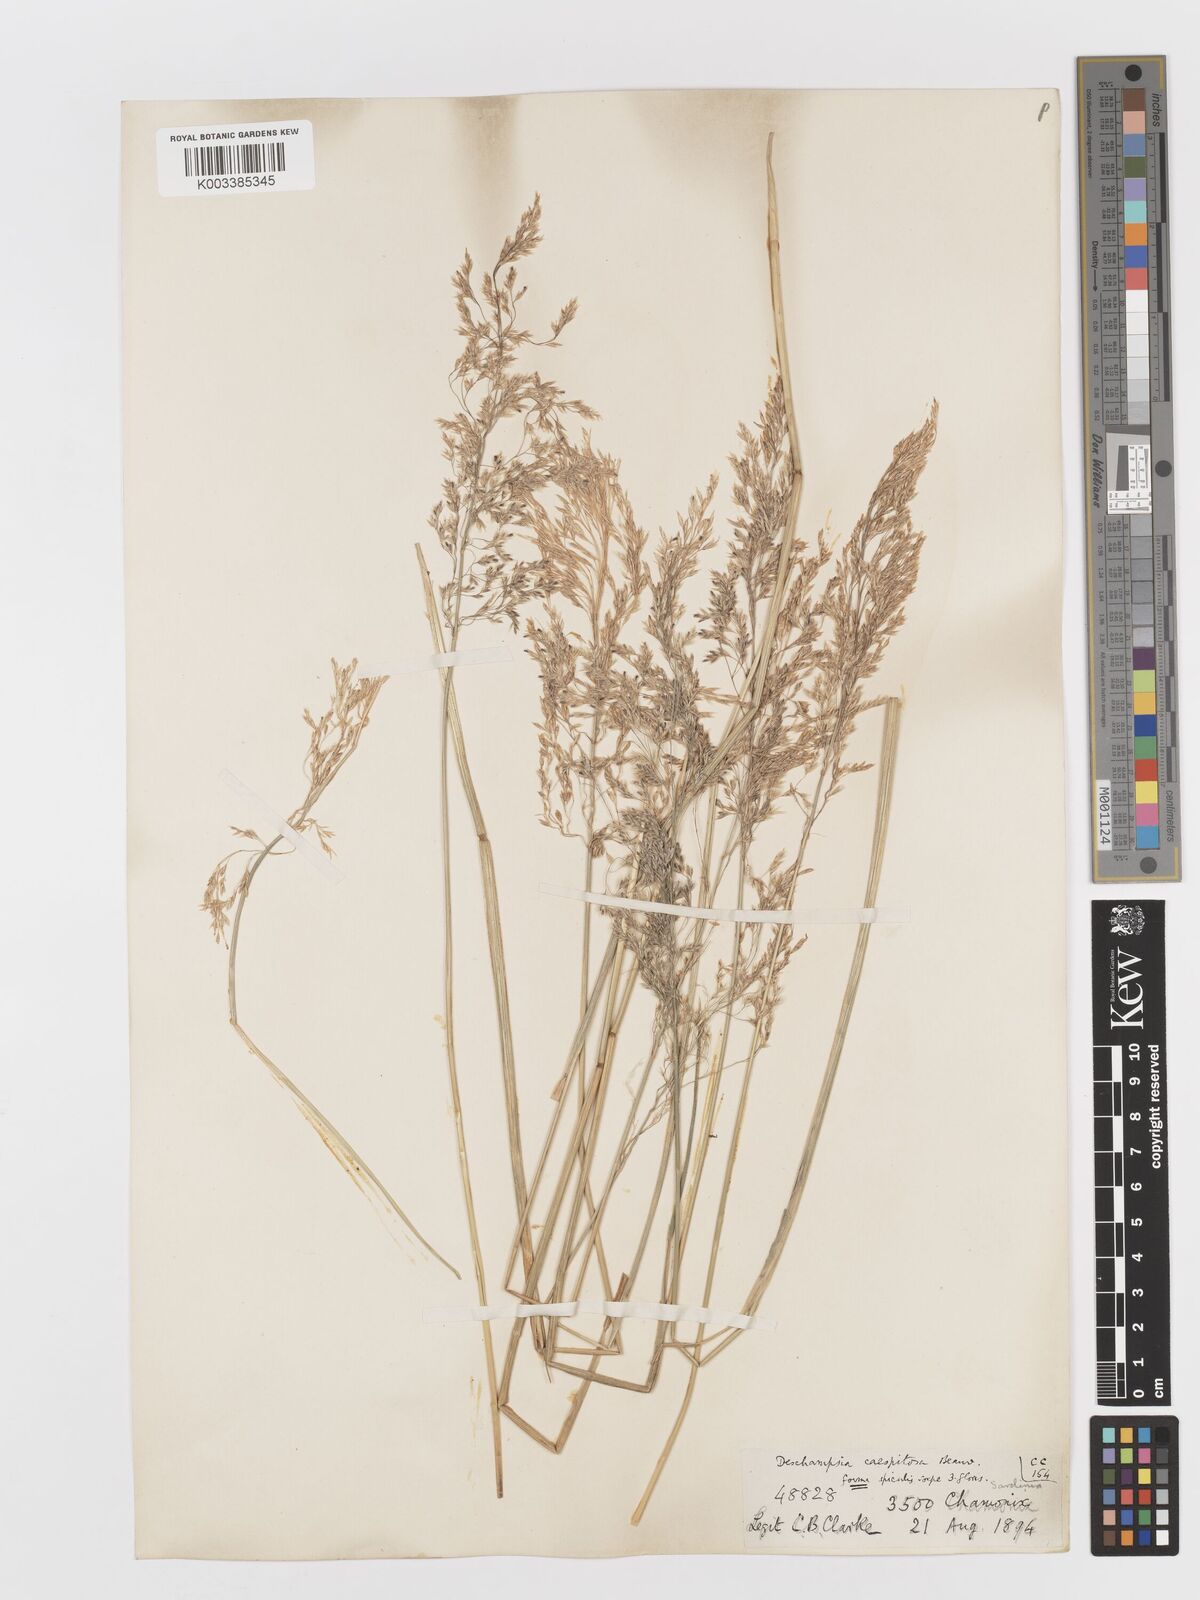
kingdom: Plantae
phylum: Tracheophyta
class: Liliopsida
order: Poales
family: Poaceae
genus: Deschampsia
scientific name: Deschampsia cespitosa
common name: Tufted hair-grass
